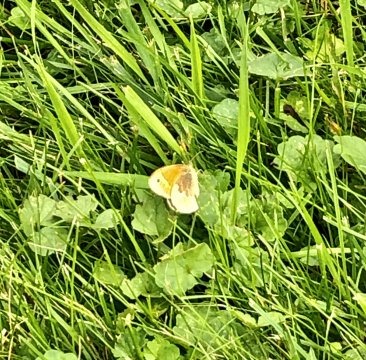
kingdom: Animalia
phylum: Arthropoda
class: Insecta
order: Lepidoptera
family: Nymphalidae
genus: Coenonympha
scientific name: Coenonympha california
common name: California Ringlet
